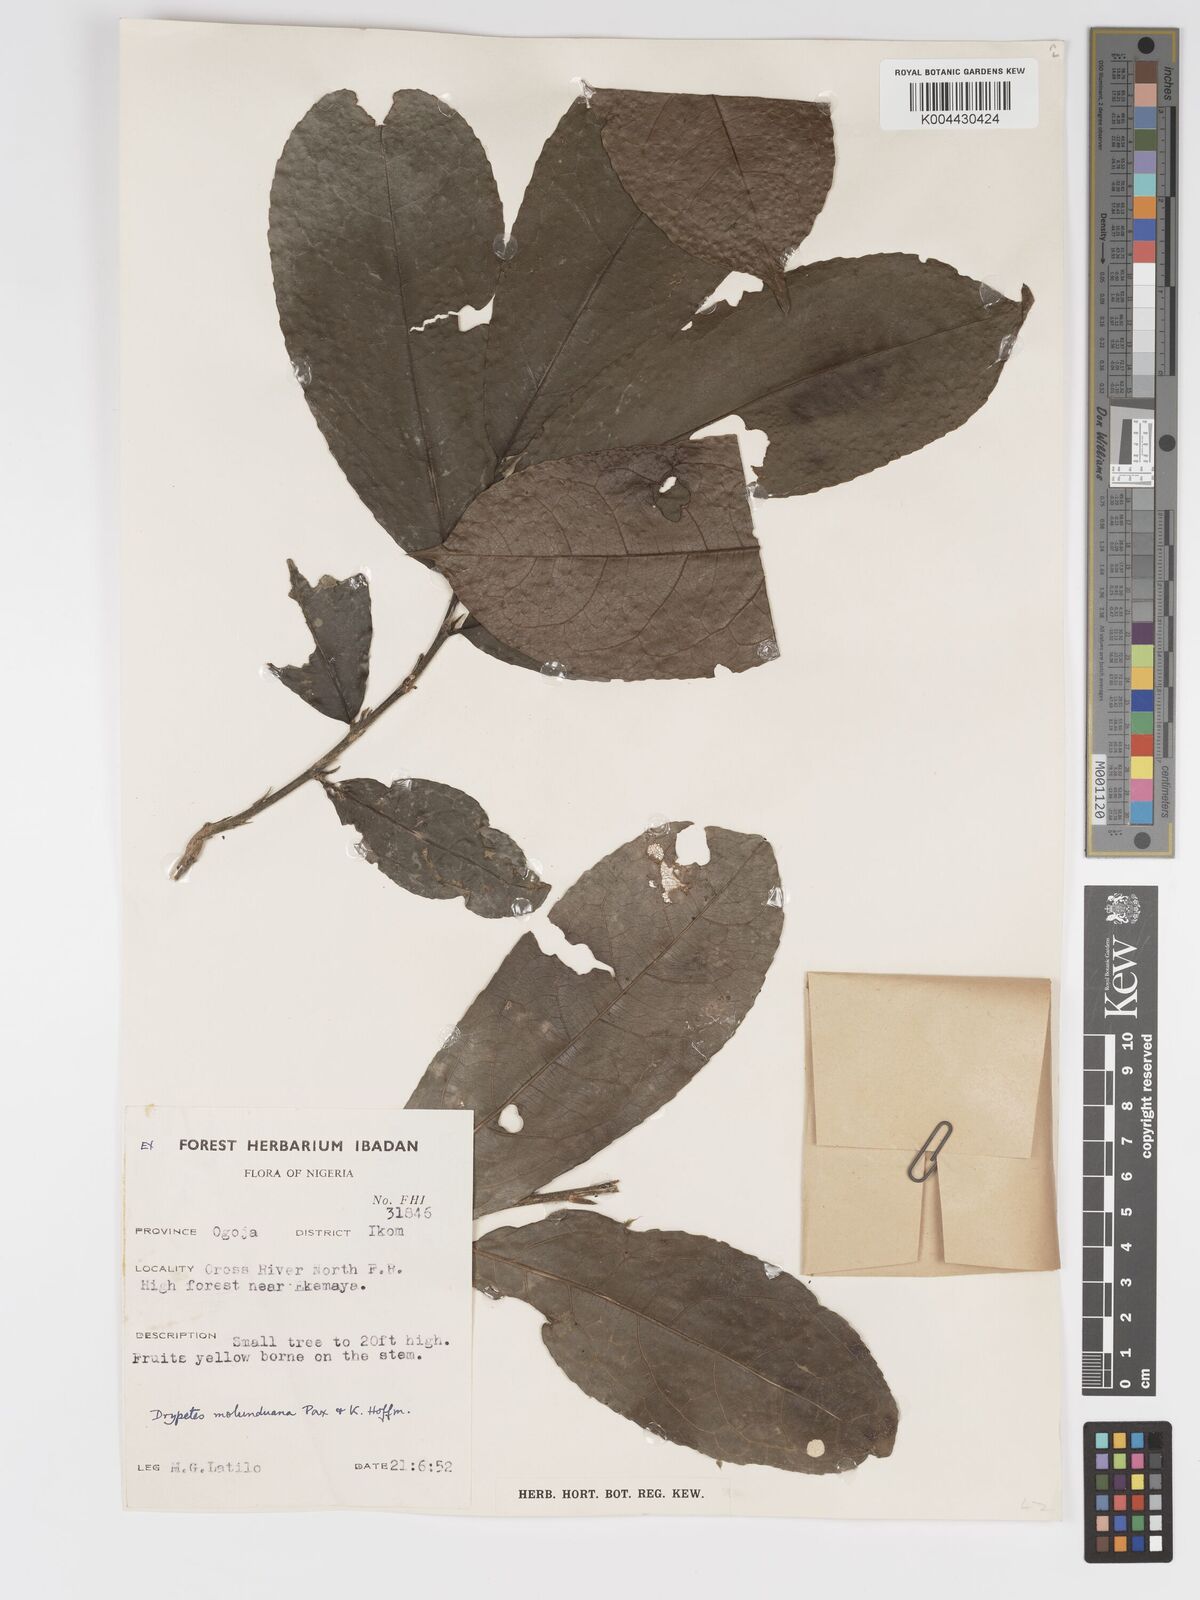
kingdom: Plantae
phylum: Tracheophyta
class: Magnoliopsida
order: Malpighiales
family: Putranjivaceae
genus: Drypetes
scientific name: Drypetes molunduana
